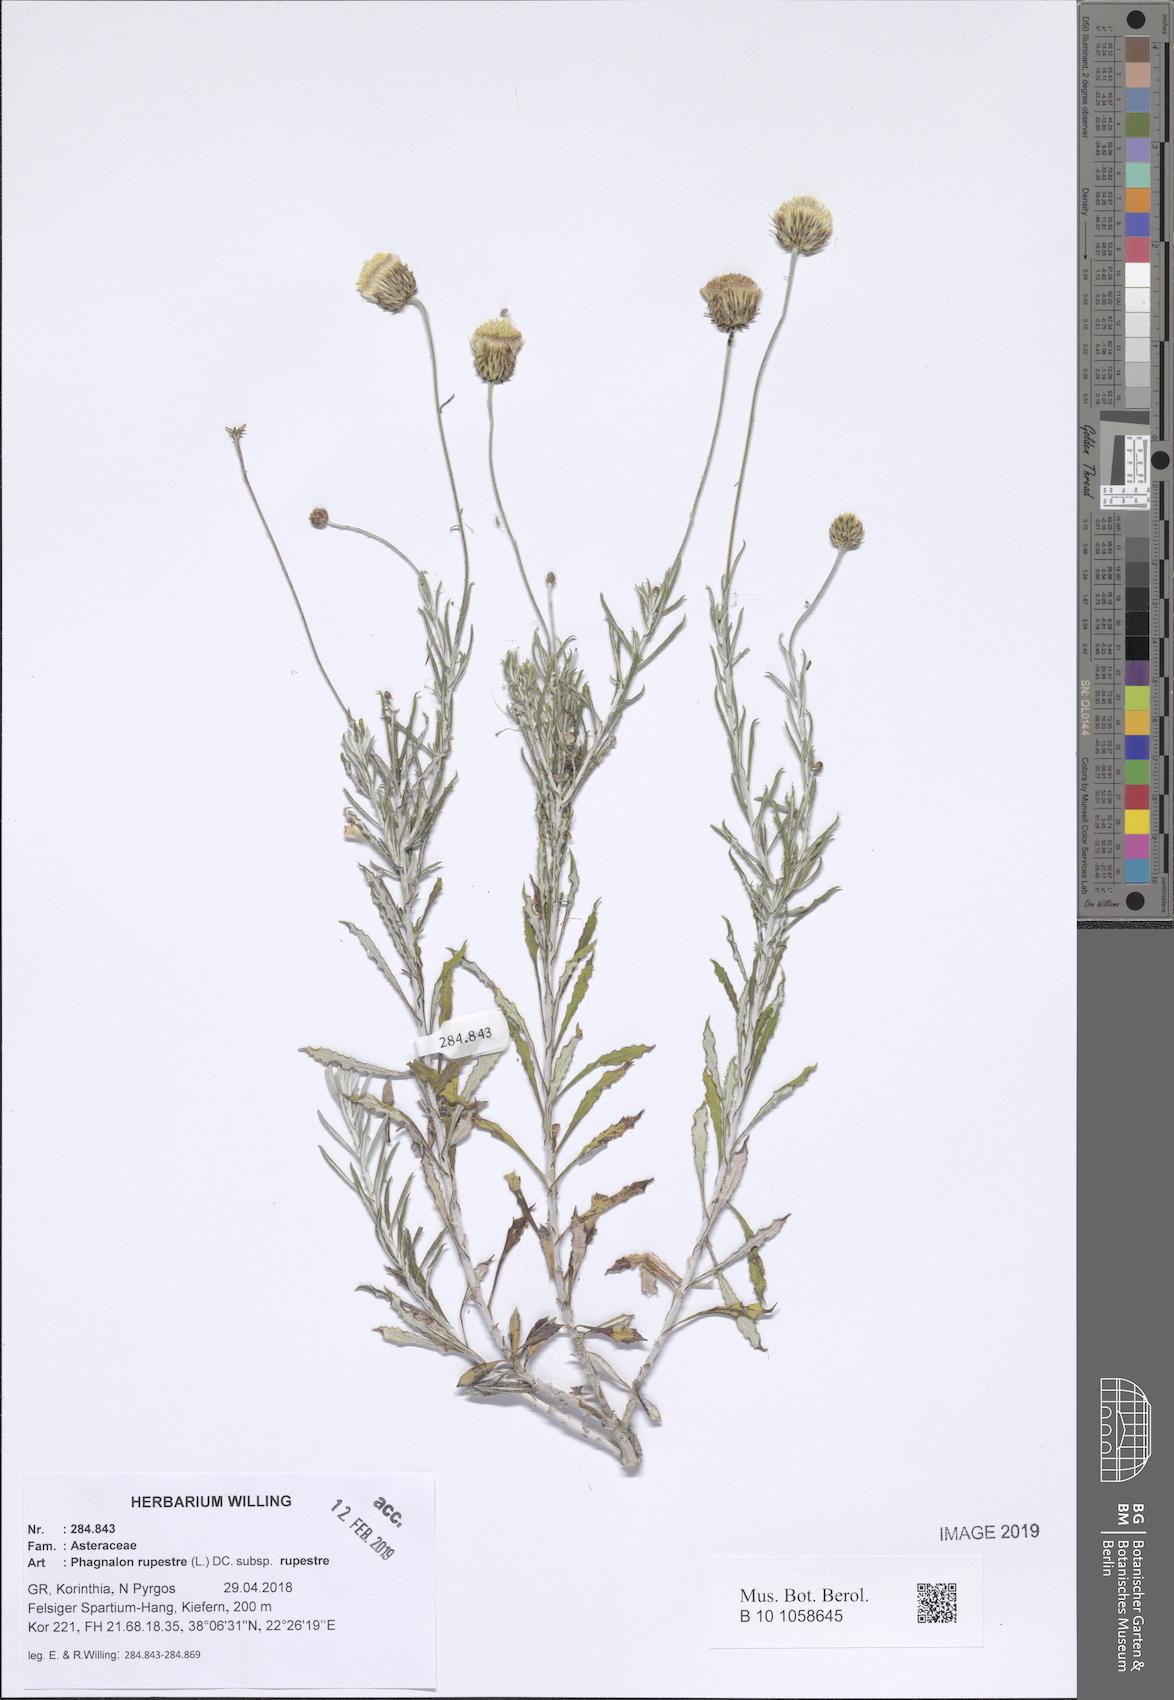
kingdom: Plantae
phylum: Tracheophyta
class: Magnoliopsida
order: Asterales
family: Asteraceae
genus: Phagnalon
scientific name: Phagnalon rupestre
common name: Rock phagnalon
